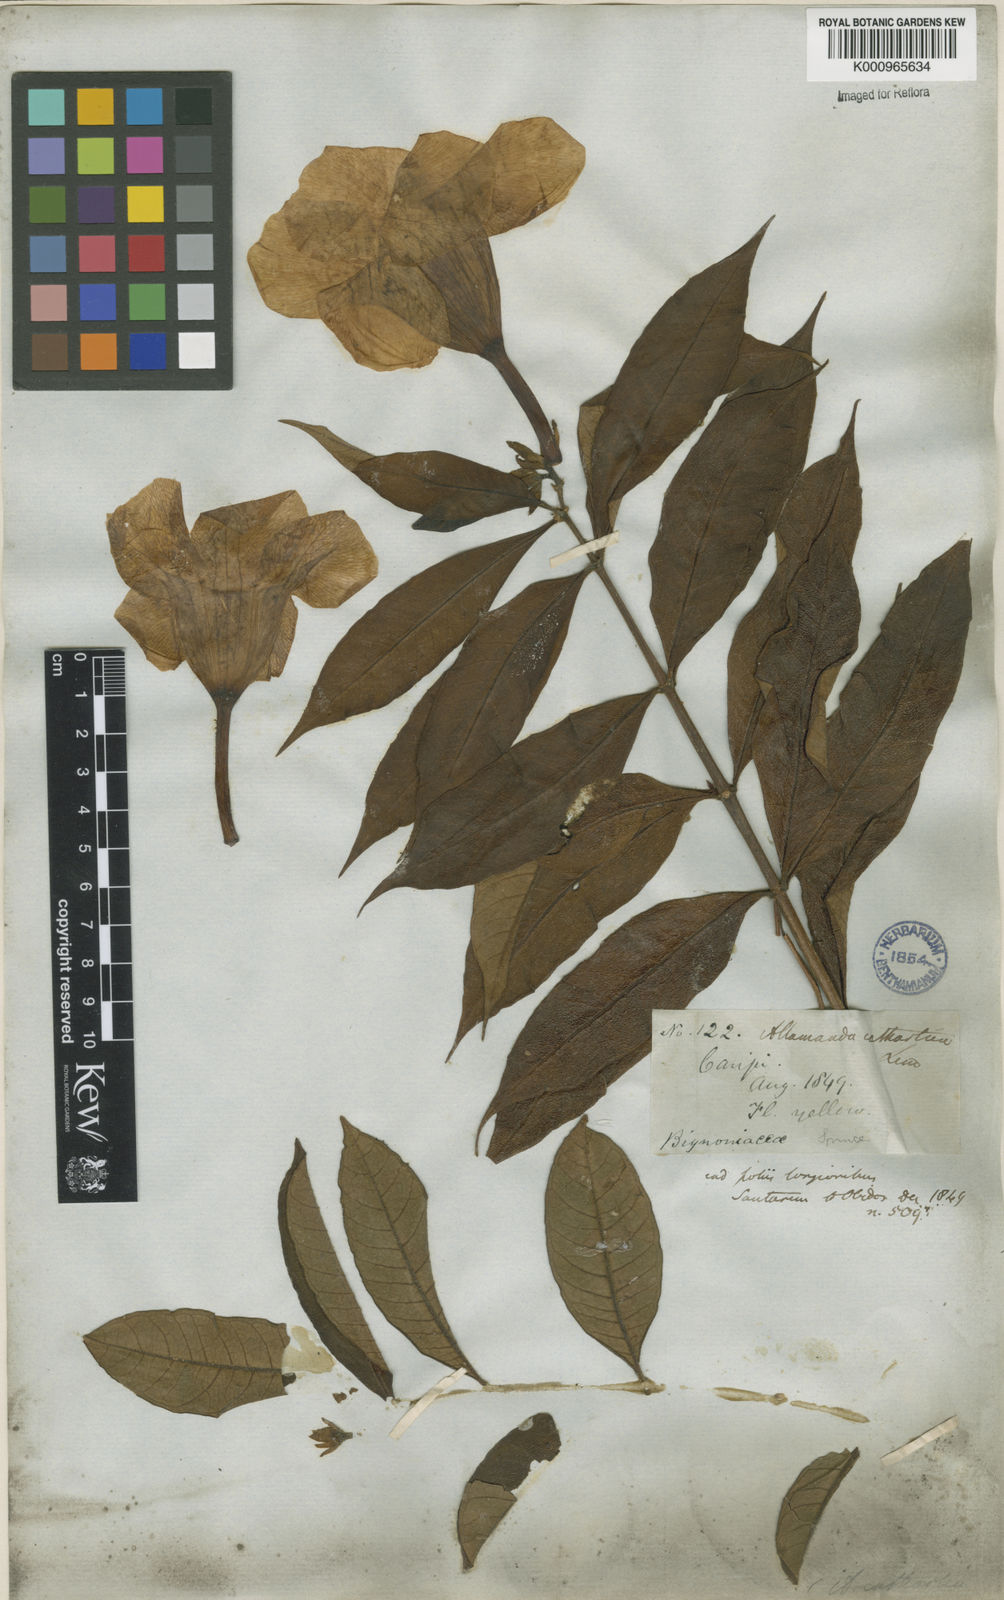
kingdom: Plantae
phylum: Tracheophyta
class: Magnoliopsida
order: Gentianales
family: Apocynaceae
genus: Allamanda
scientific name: Allamanda cathartica
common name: Golden trumpet
